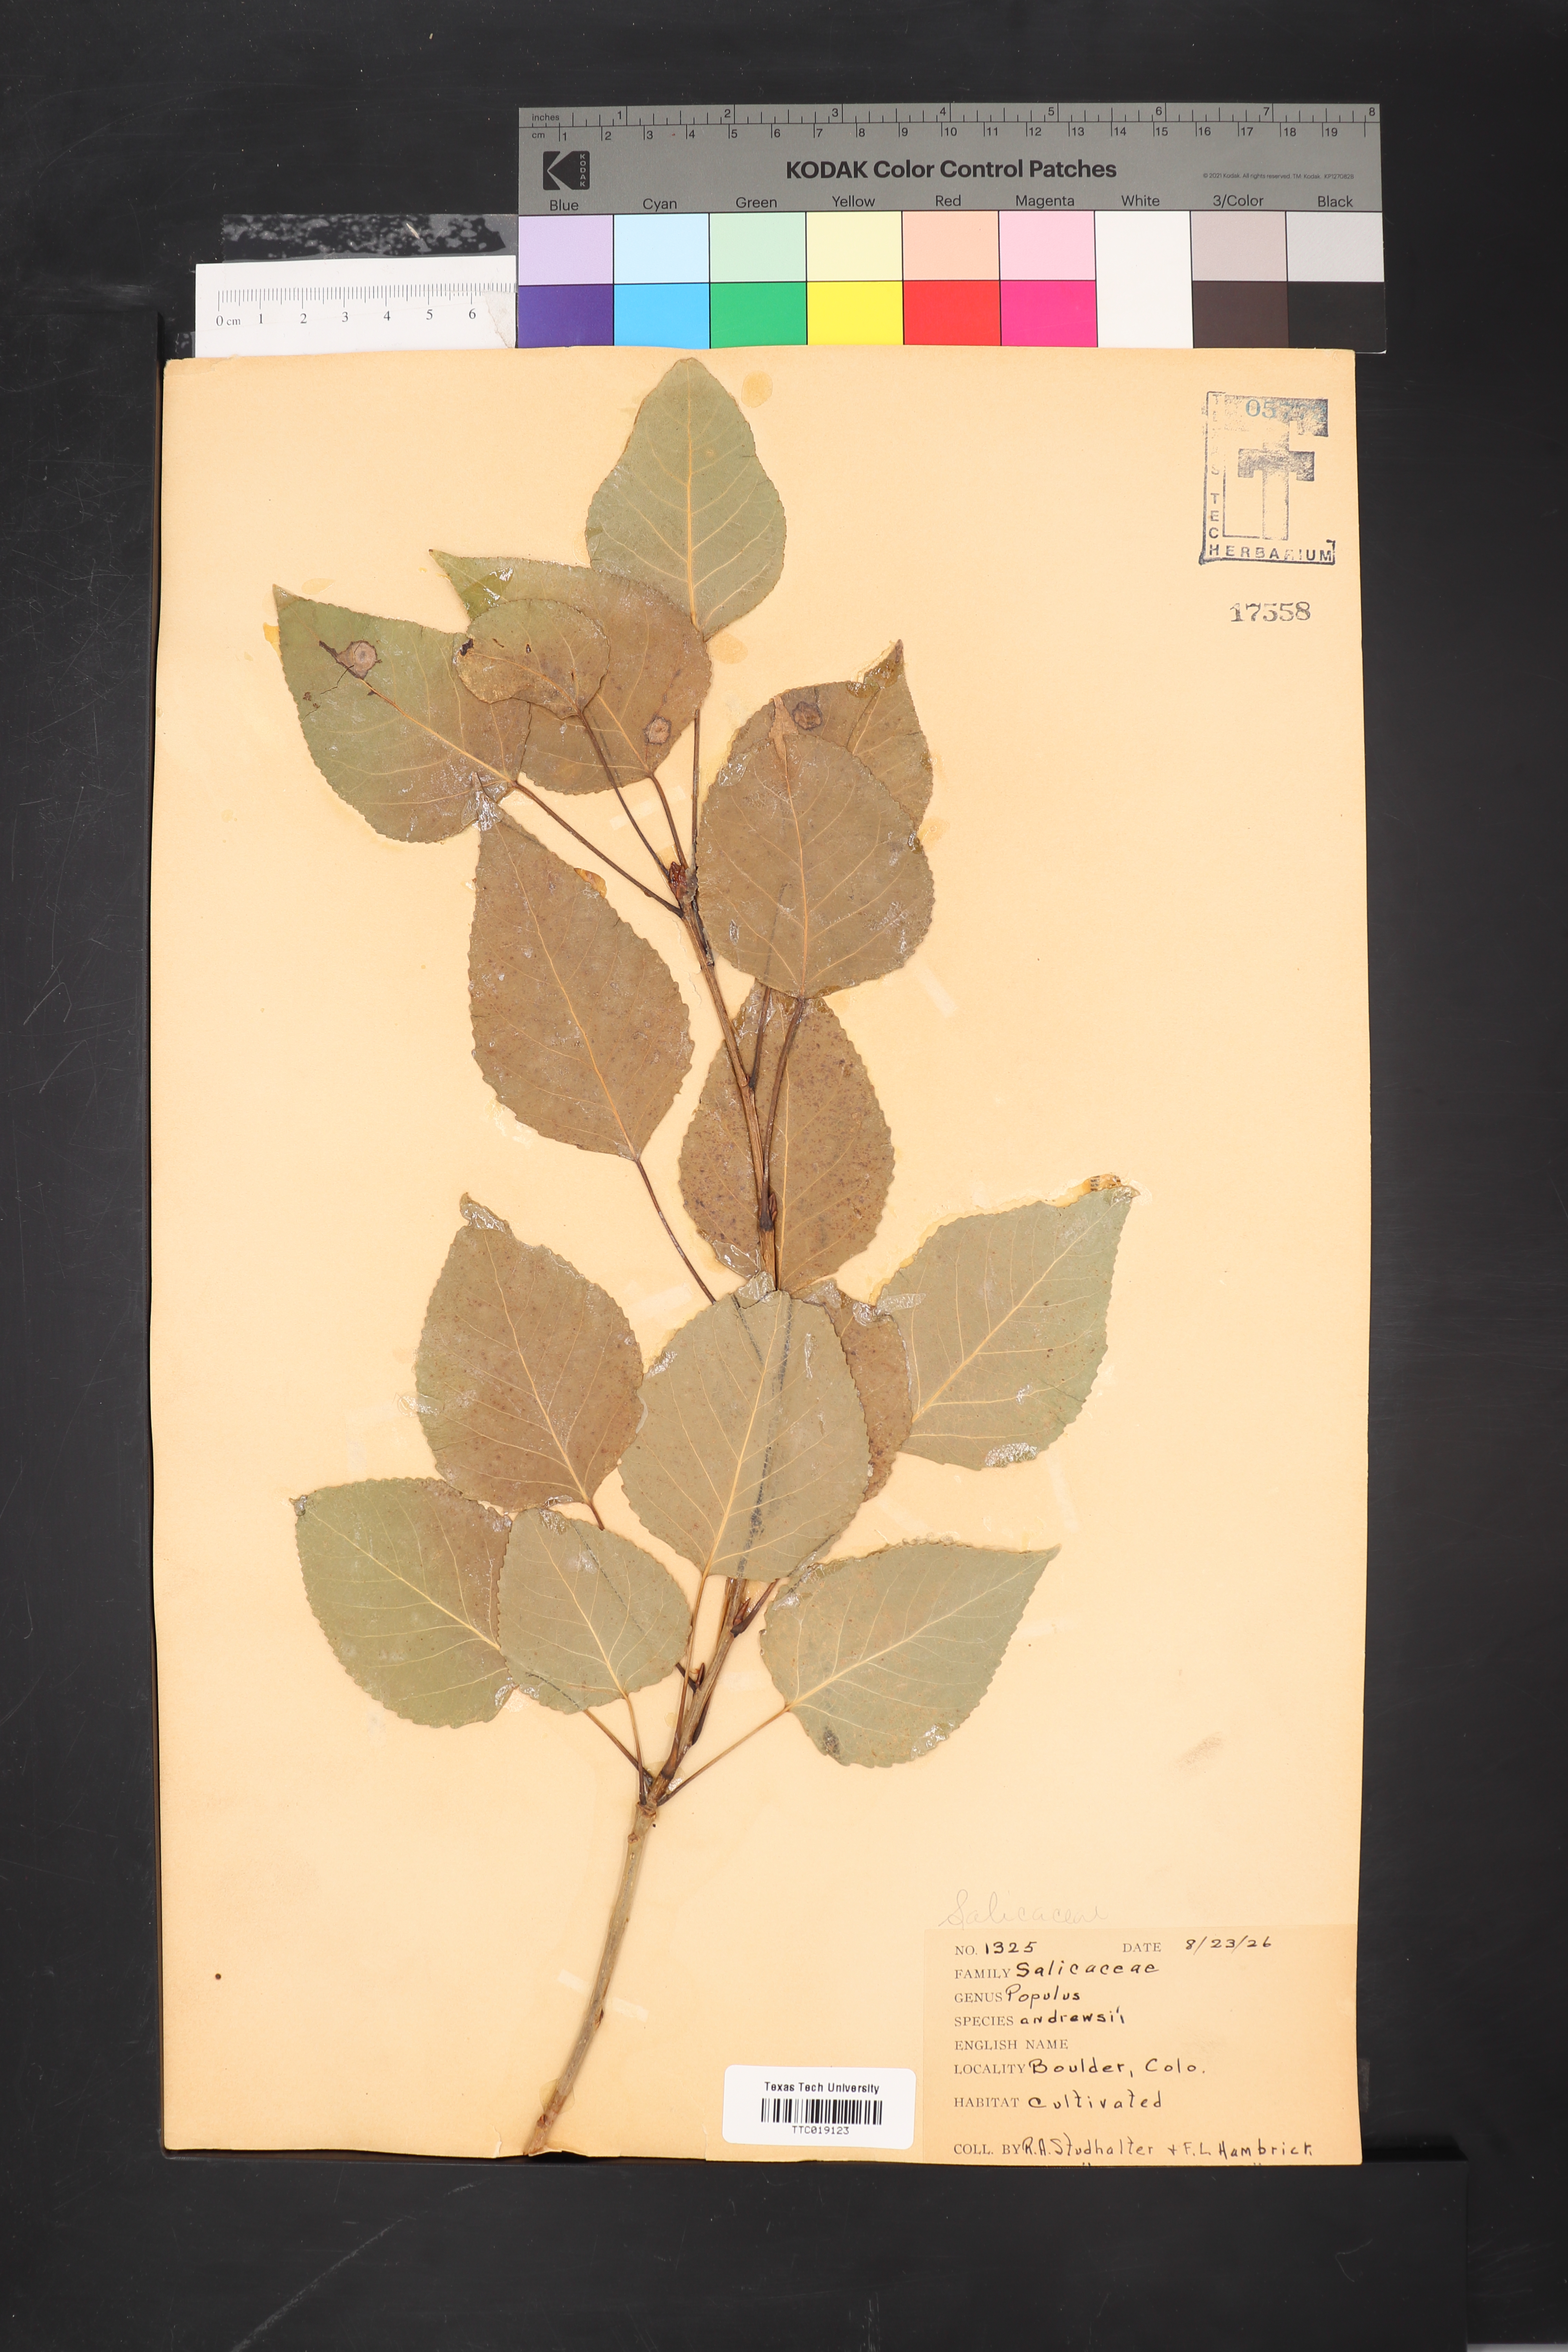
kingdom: Plantae
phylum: Tracheophyta
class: Magnoliopsida
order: Malpighiales
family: Salicaceae
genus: Populus
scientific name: Populus jackii
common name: Balm-of-gilead
